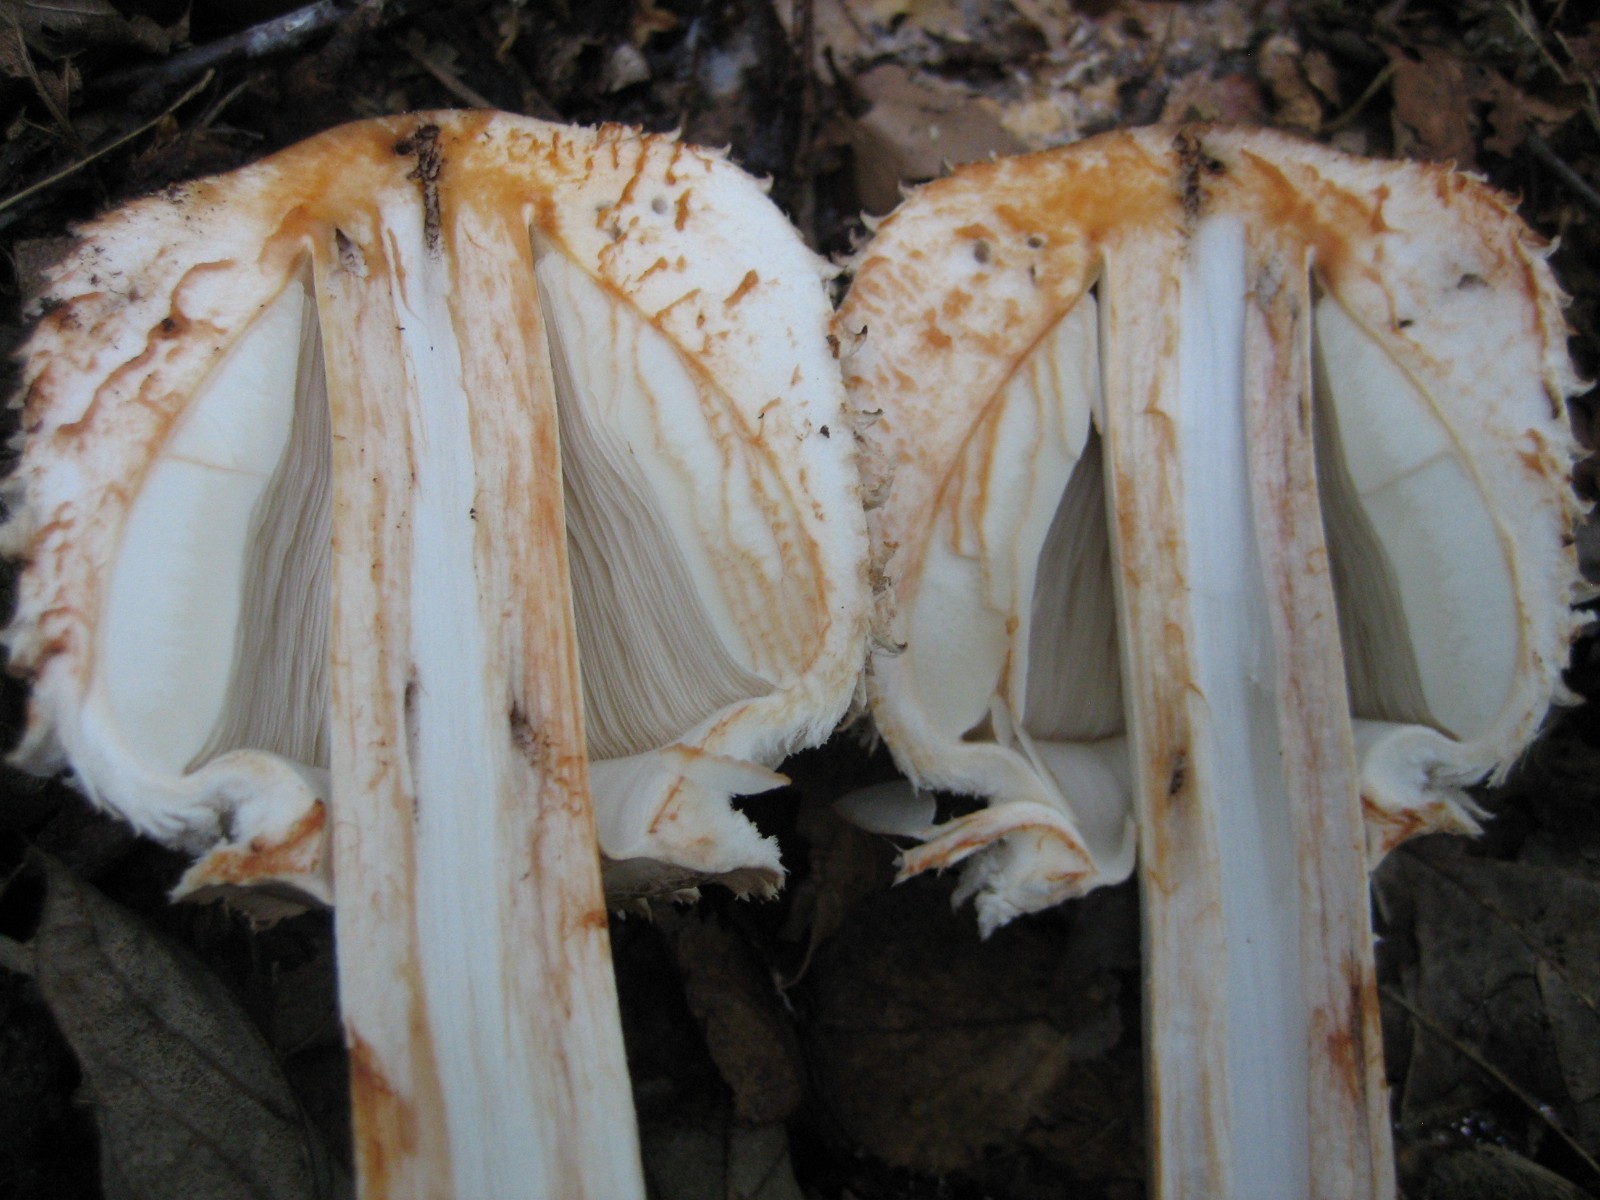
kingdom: Fungi
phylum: Basidiomycota
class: Agaricomycetes
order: Agaricales
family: Agaricaceae
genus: Chlorophyllum
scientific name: Chlorophyllum olivieri
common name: almindelig rabarberhat
